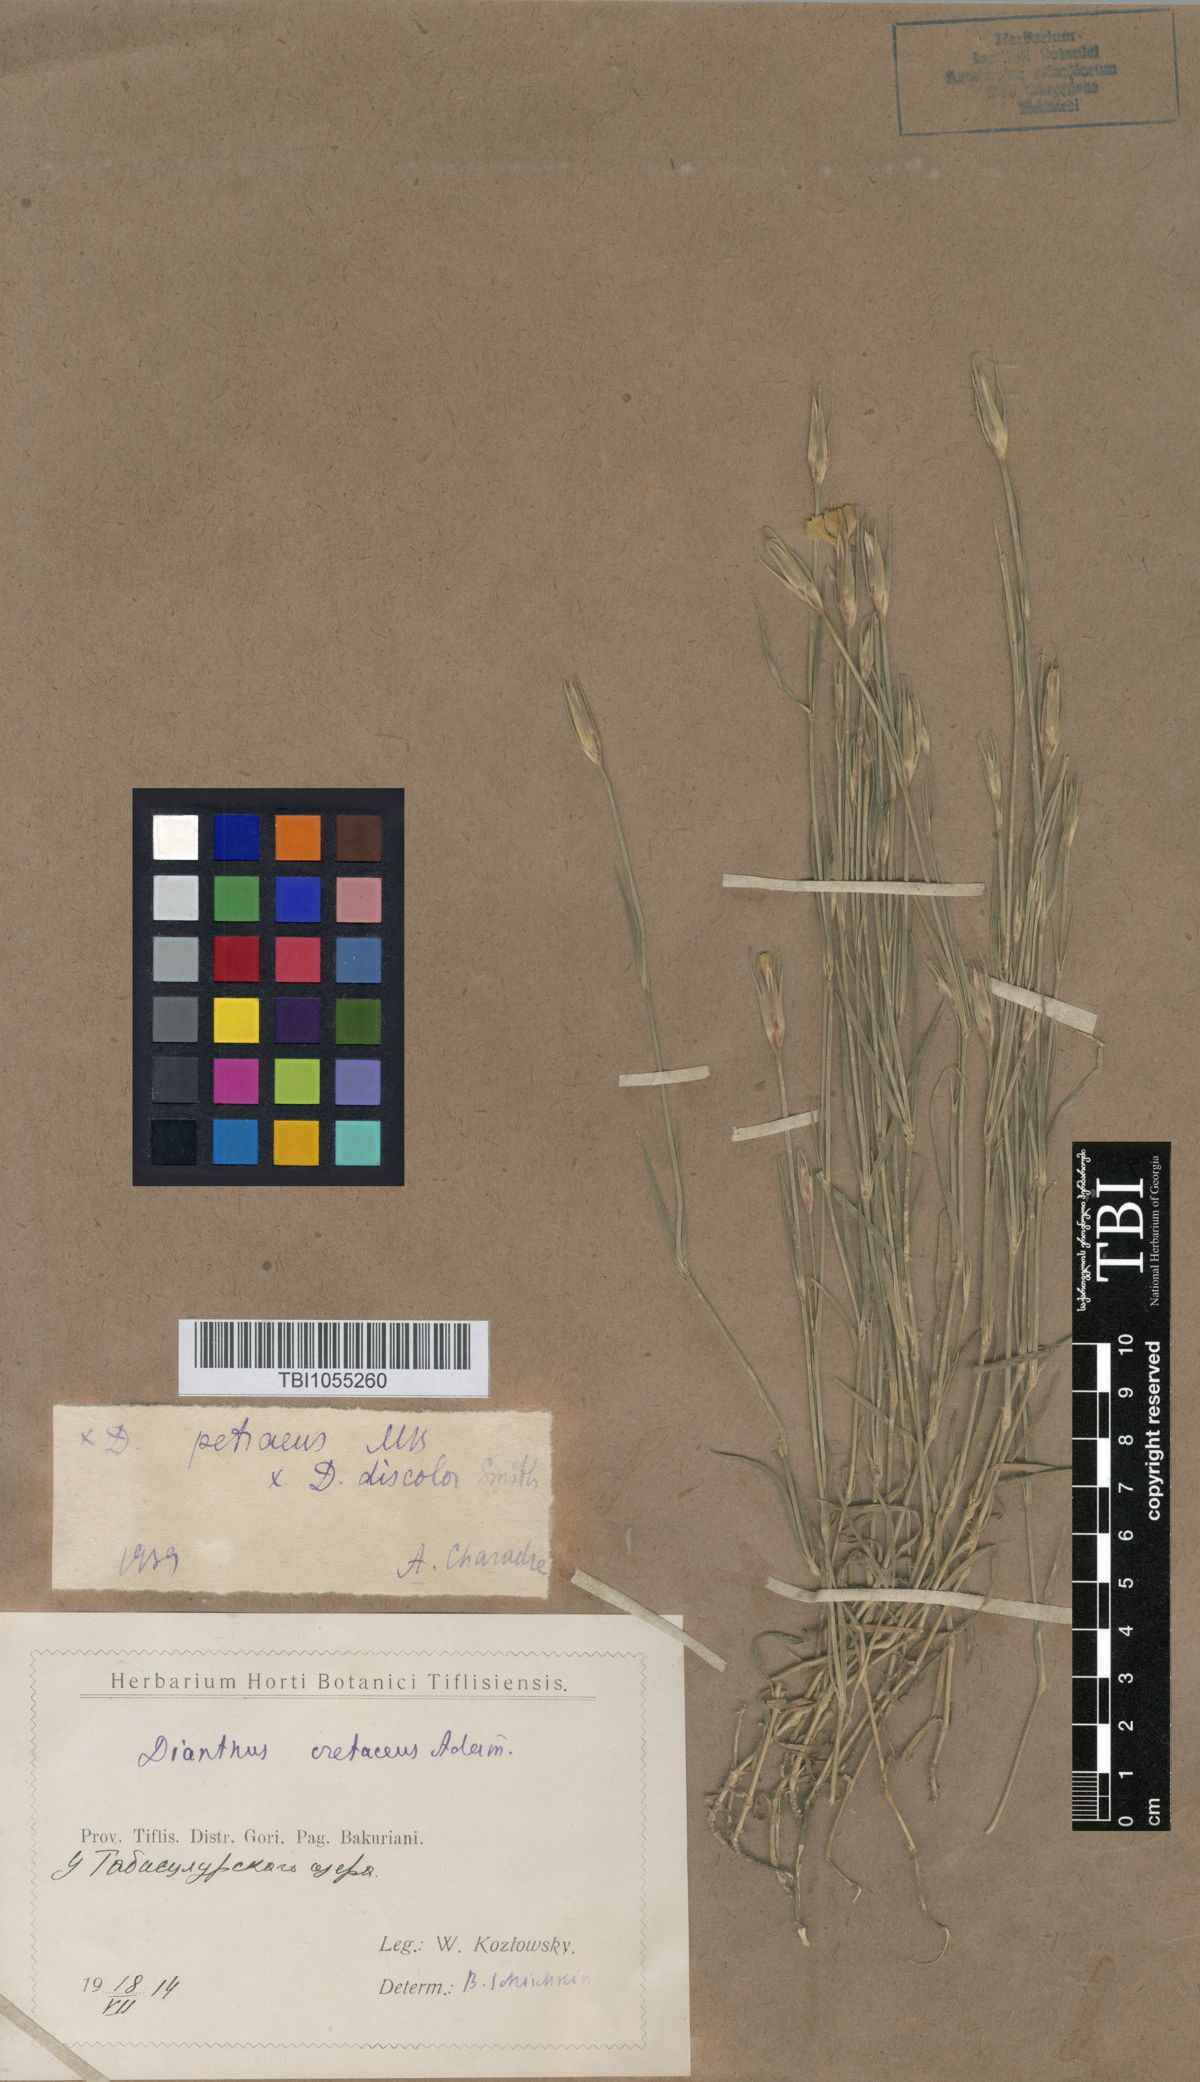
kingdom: Plantae
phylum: Tracheophyta
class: Magnoliopsida
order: Caryophyllales
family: Caryophyllaceae
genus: Dianthus
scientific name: Dianthus cretaceus
